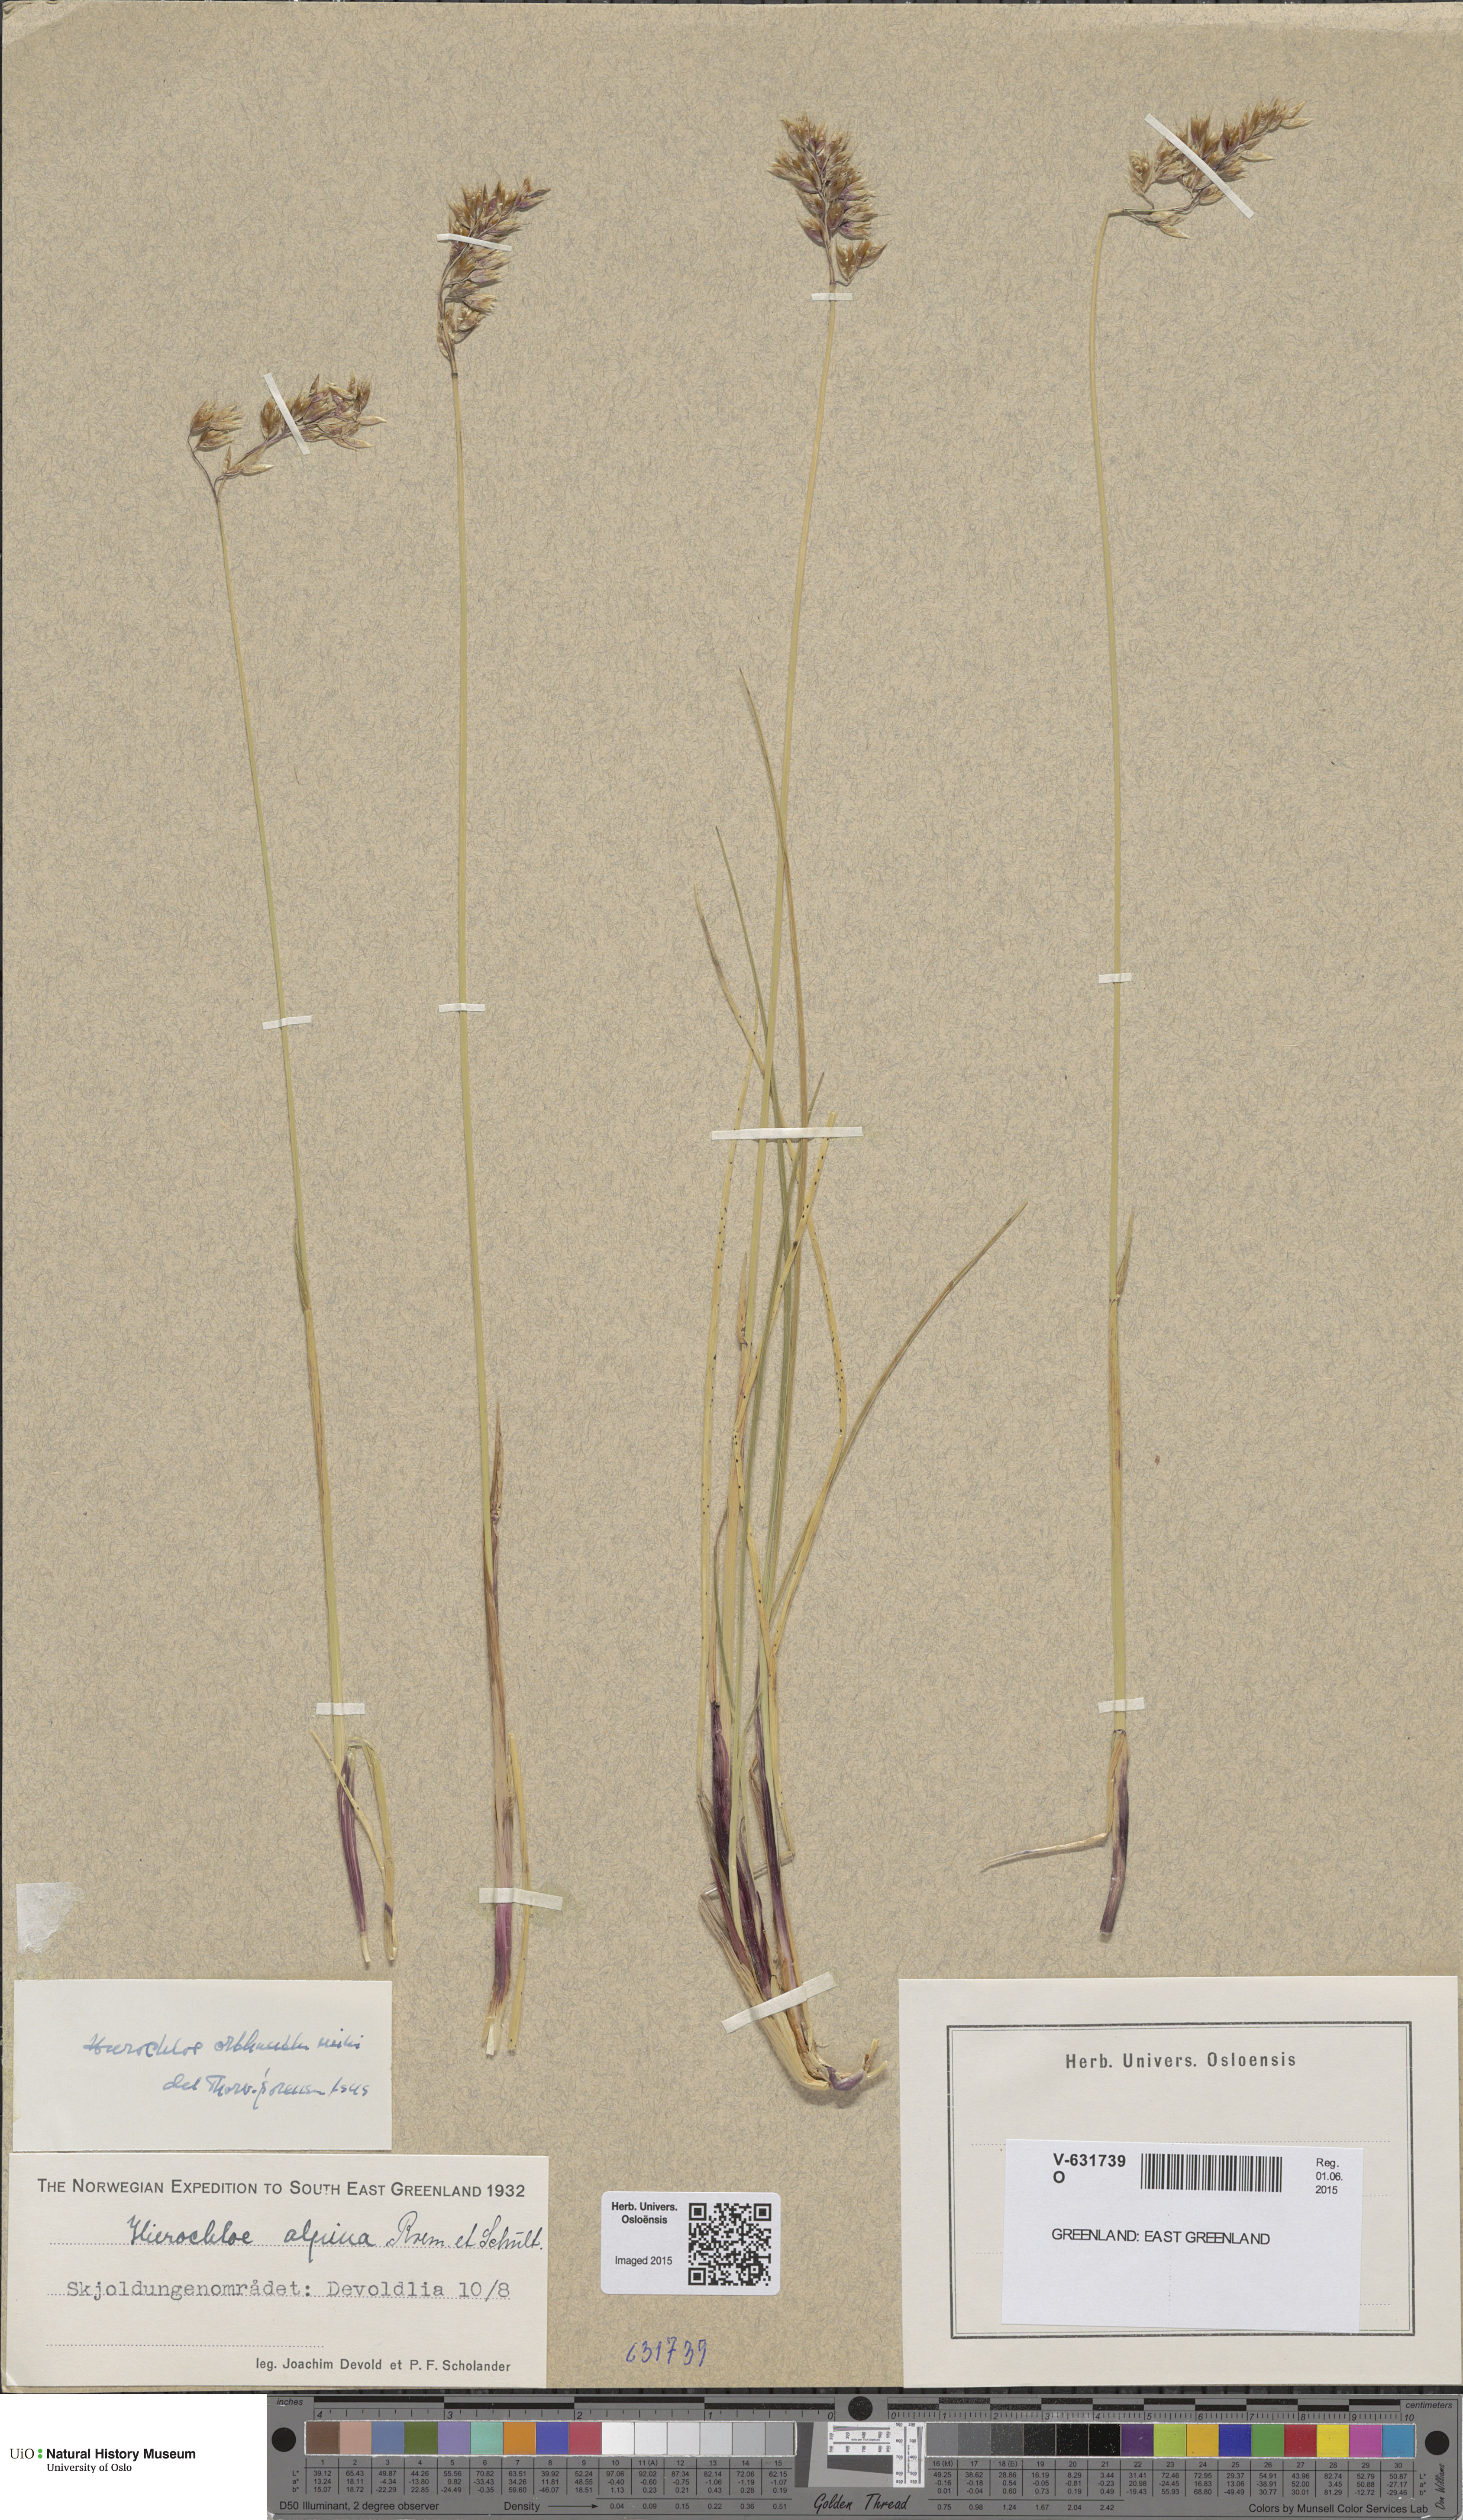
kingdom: Plantae
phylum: Tracheophyta
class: Liliopsida
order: Poales
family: Poaceae
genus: Anthoxanthum
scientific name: Anthoxanthum monticola
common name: Alpine sweetgrass
